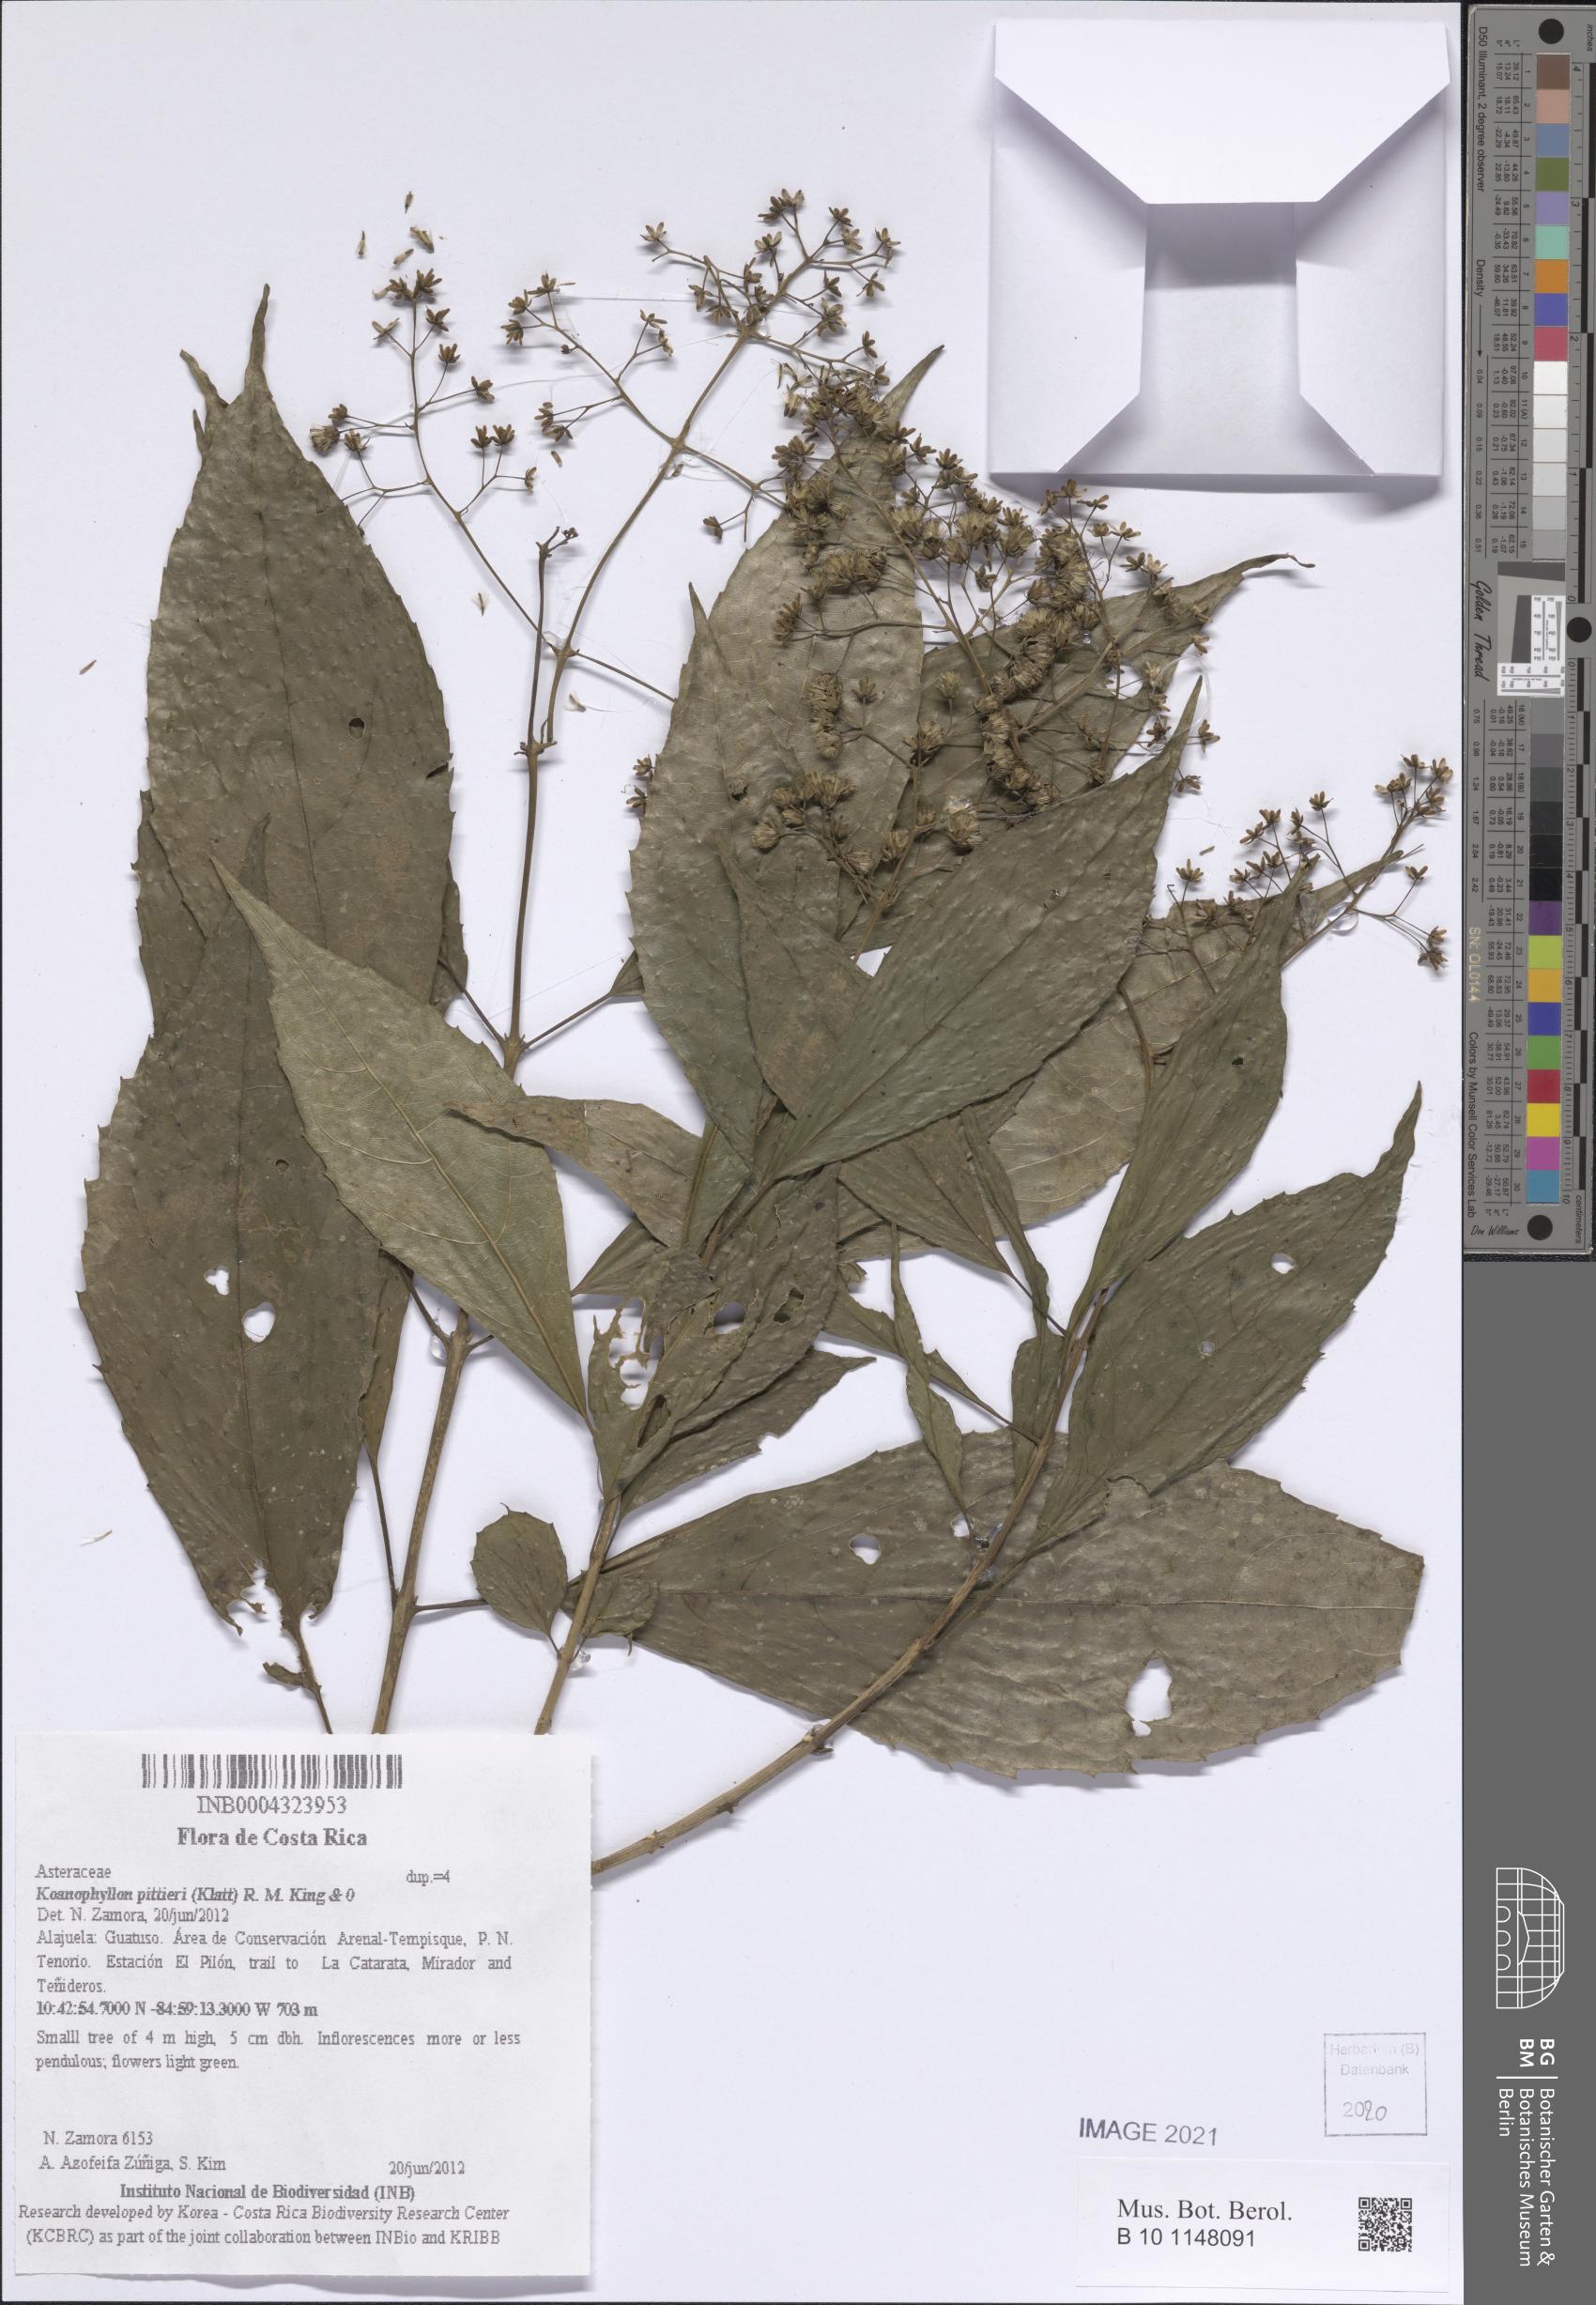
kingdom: Plantae
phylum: Tracheophyta
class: Magnoliopsida
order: Asterales
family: Asteraceae
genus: Koanophyllon
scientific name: Koanophyllon pittieri
